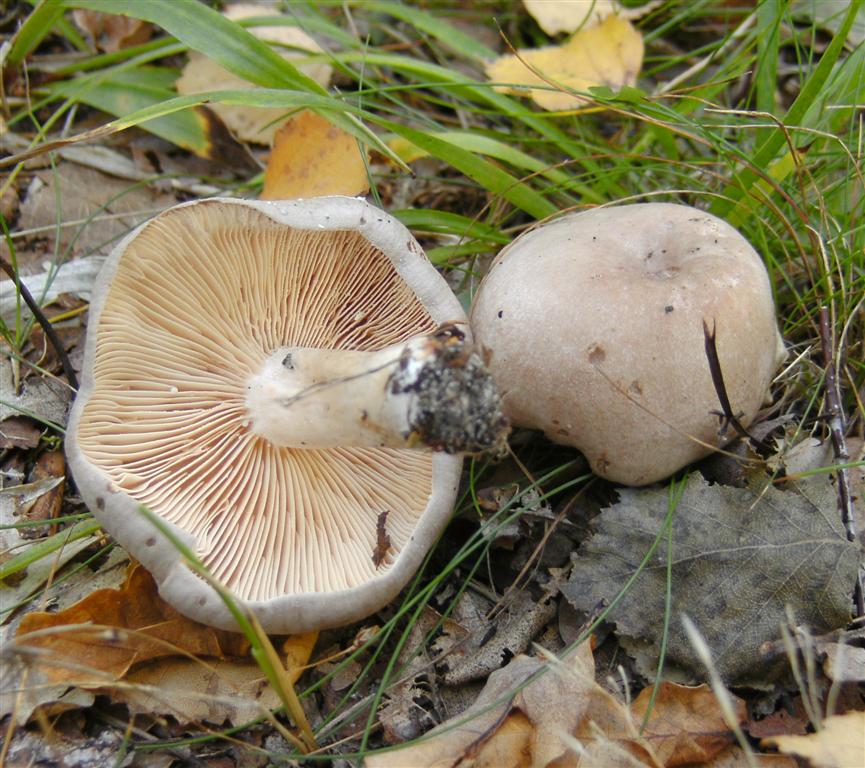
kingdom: Fungi
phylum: Basidiomycota
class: Agaricomycetes
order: Russulales
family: Russulaceae
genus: Lactarius
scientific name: Lactarius vietus
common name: violetgrå mælkehat
